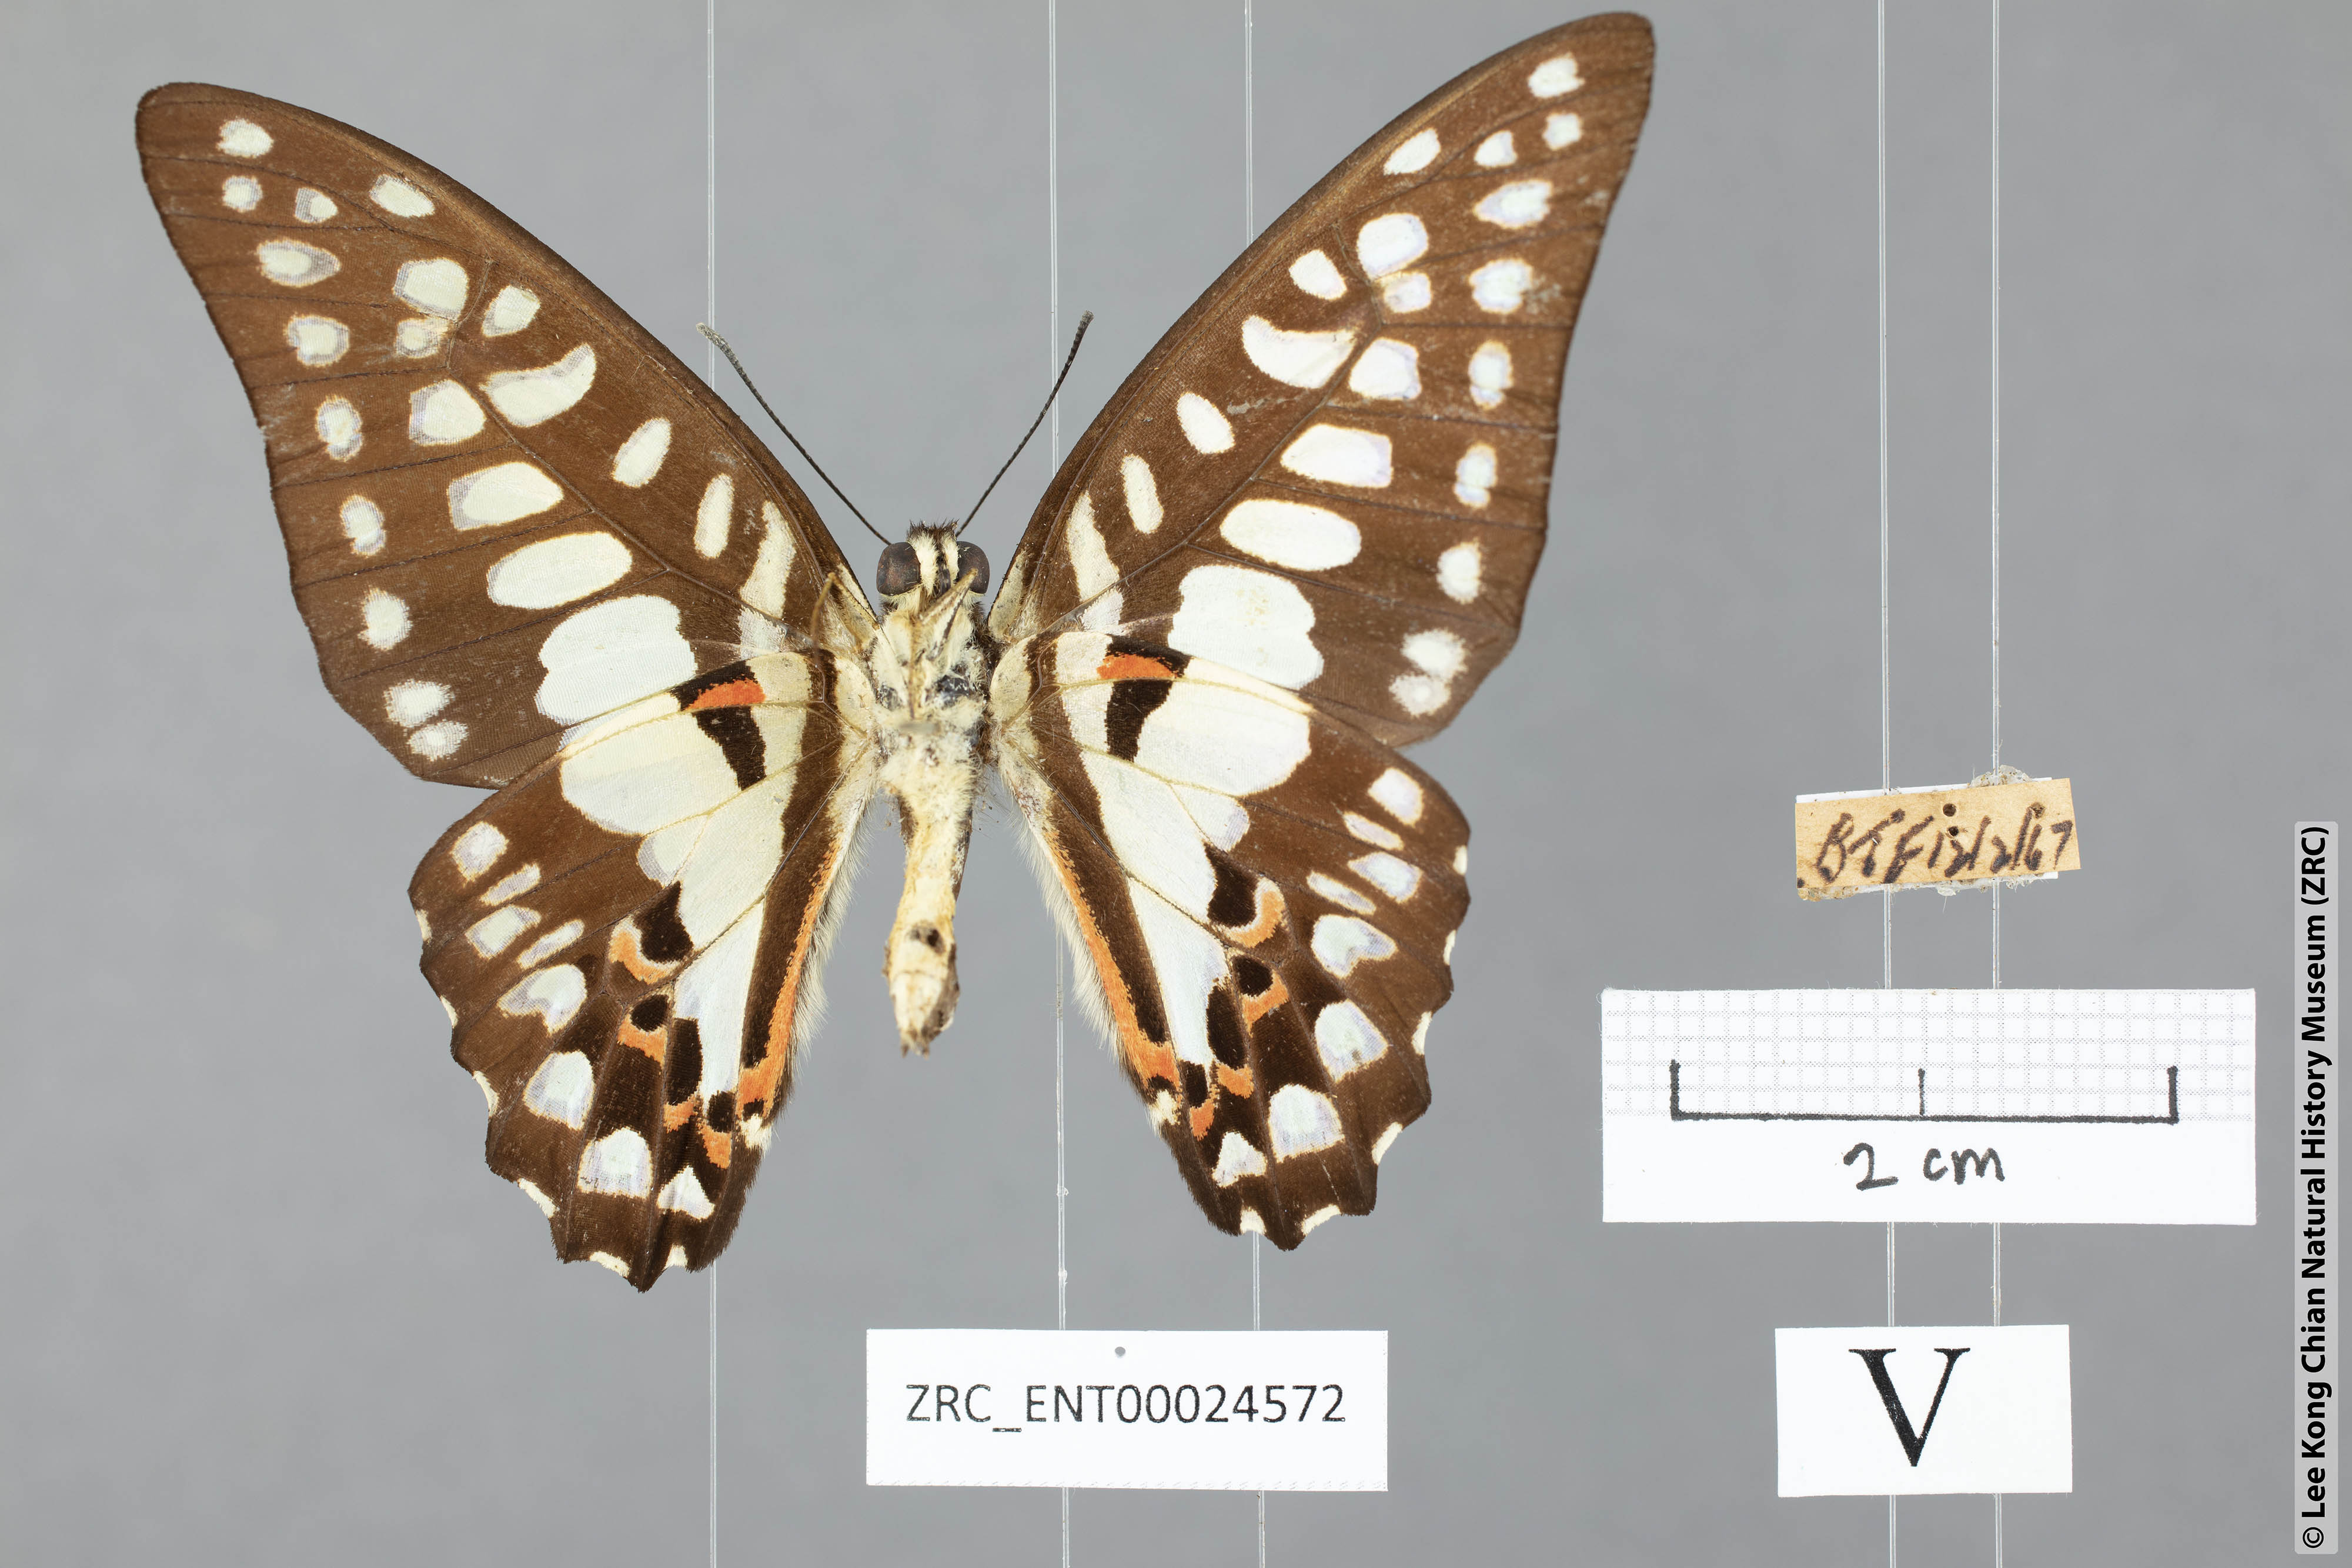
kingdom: Animalia
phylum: Arthropoda
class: Insecta
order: Lepidoptera
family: Papilionidae
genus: Graphium
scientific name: Graphium doson
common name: Common jay
